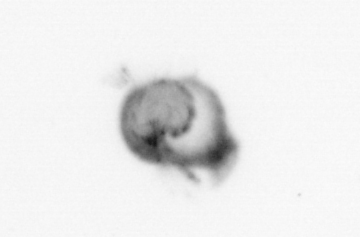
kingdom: Animalia
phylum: Annelida
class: Polychaeta
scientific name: Polychaeta
